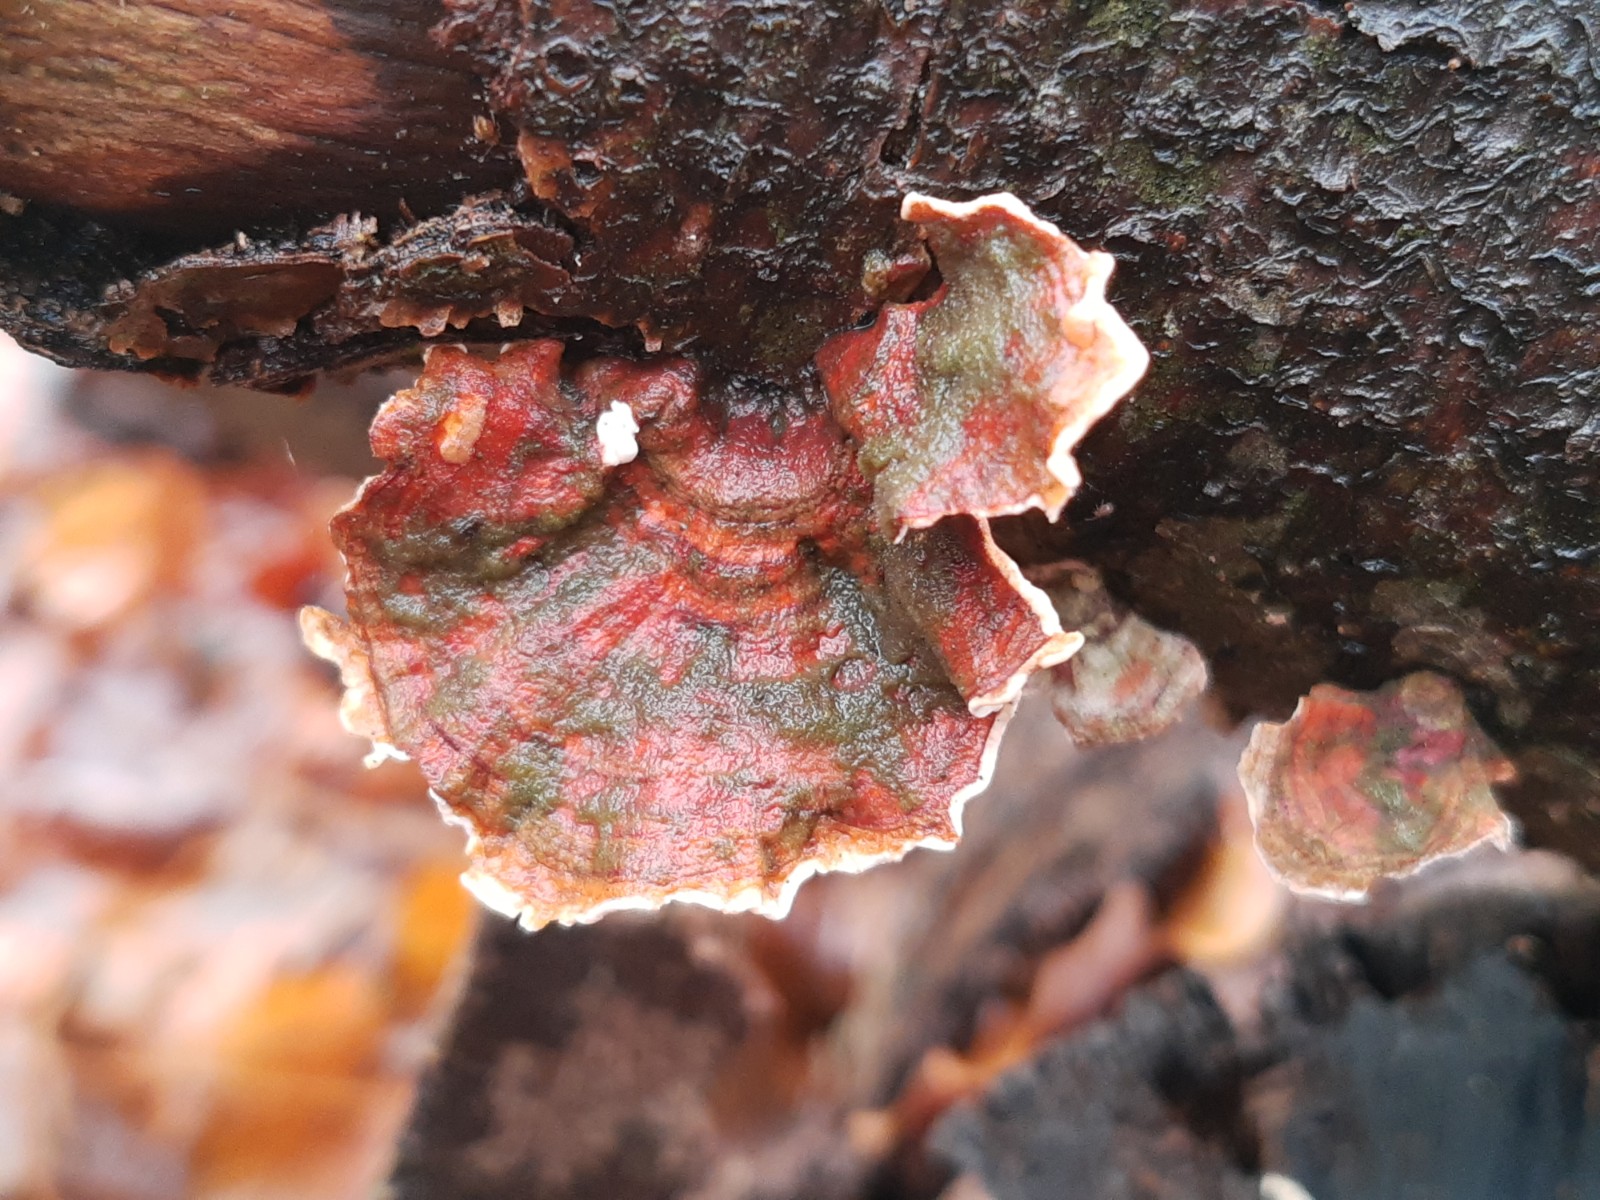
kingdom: Fungi
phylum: Basidiomycota
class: Agaricomycetes
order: Russulales
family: Stereaceae
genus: Stereum
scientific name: Stereum subtomentosum
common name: smuk lædersvamp
